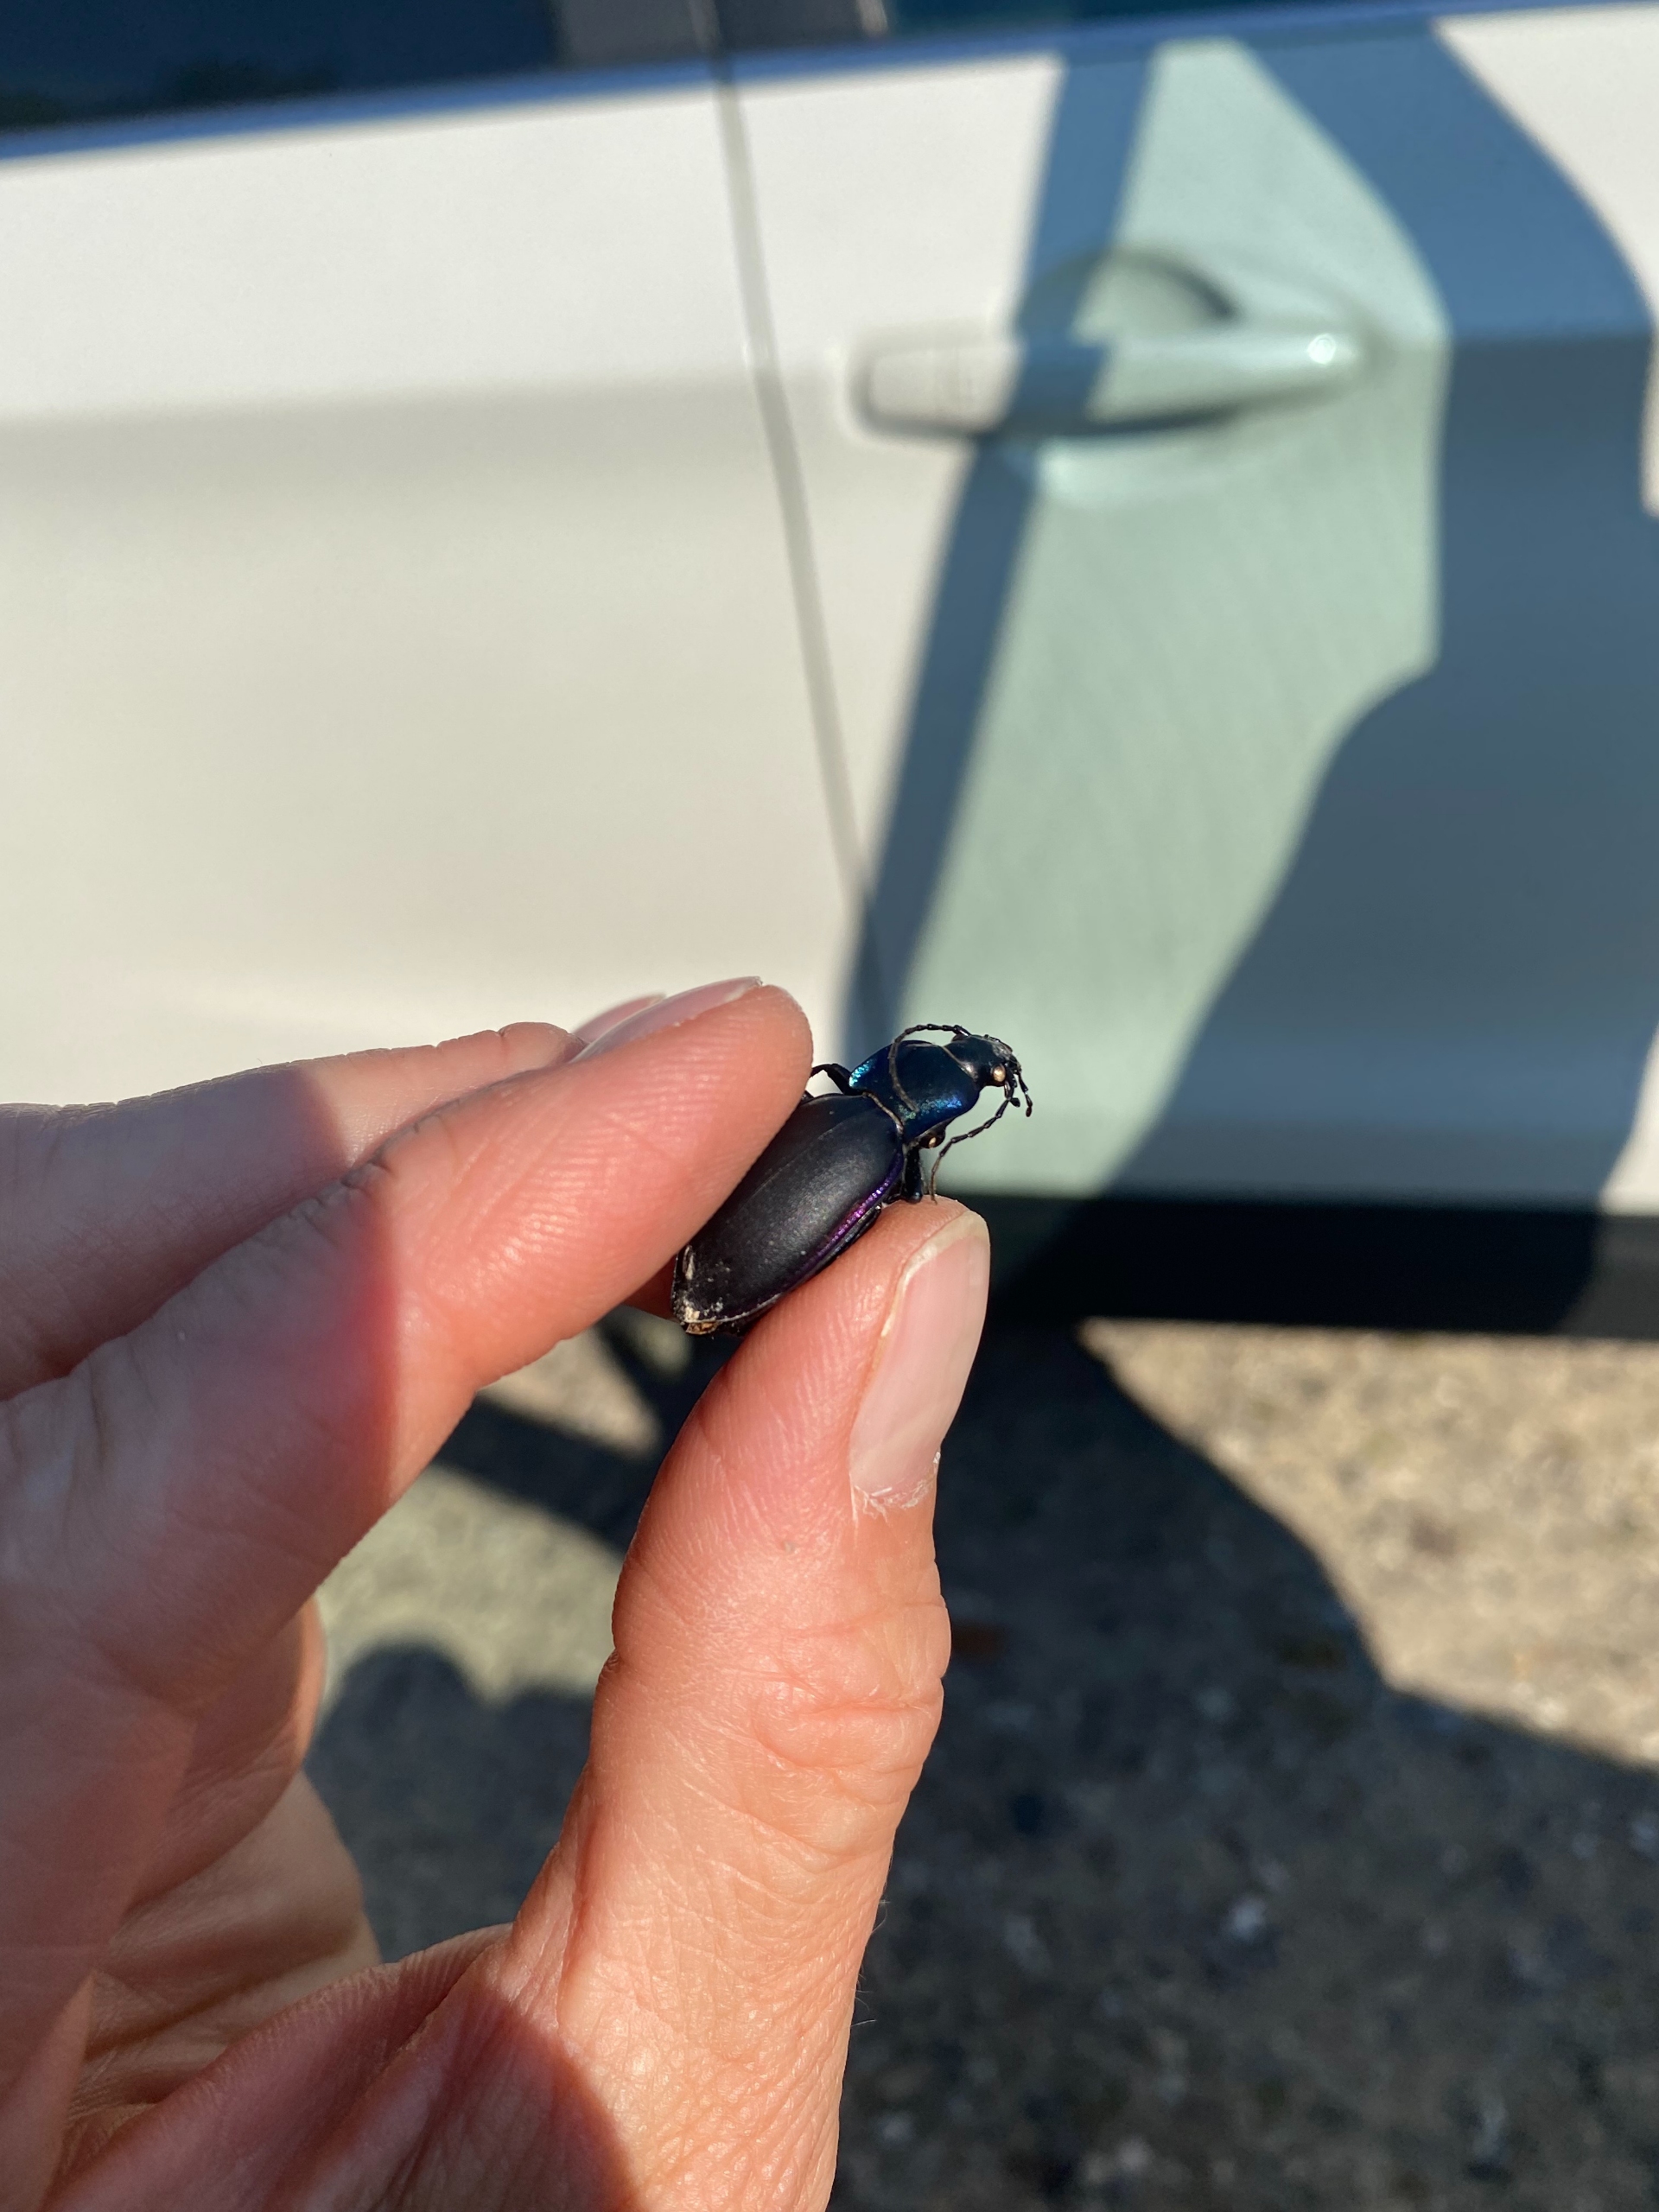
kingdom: Animalia
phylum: Arthropoda
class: Insecta
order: Coleoptera
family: Carabidae
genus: Carabus
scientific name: Carabus violaceus
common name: Violetrandet løber
